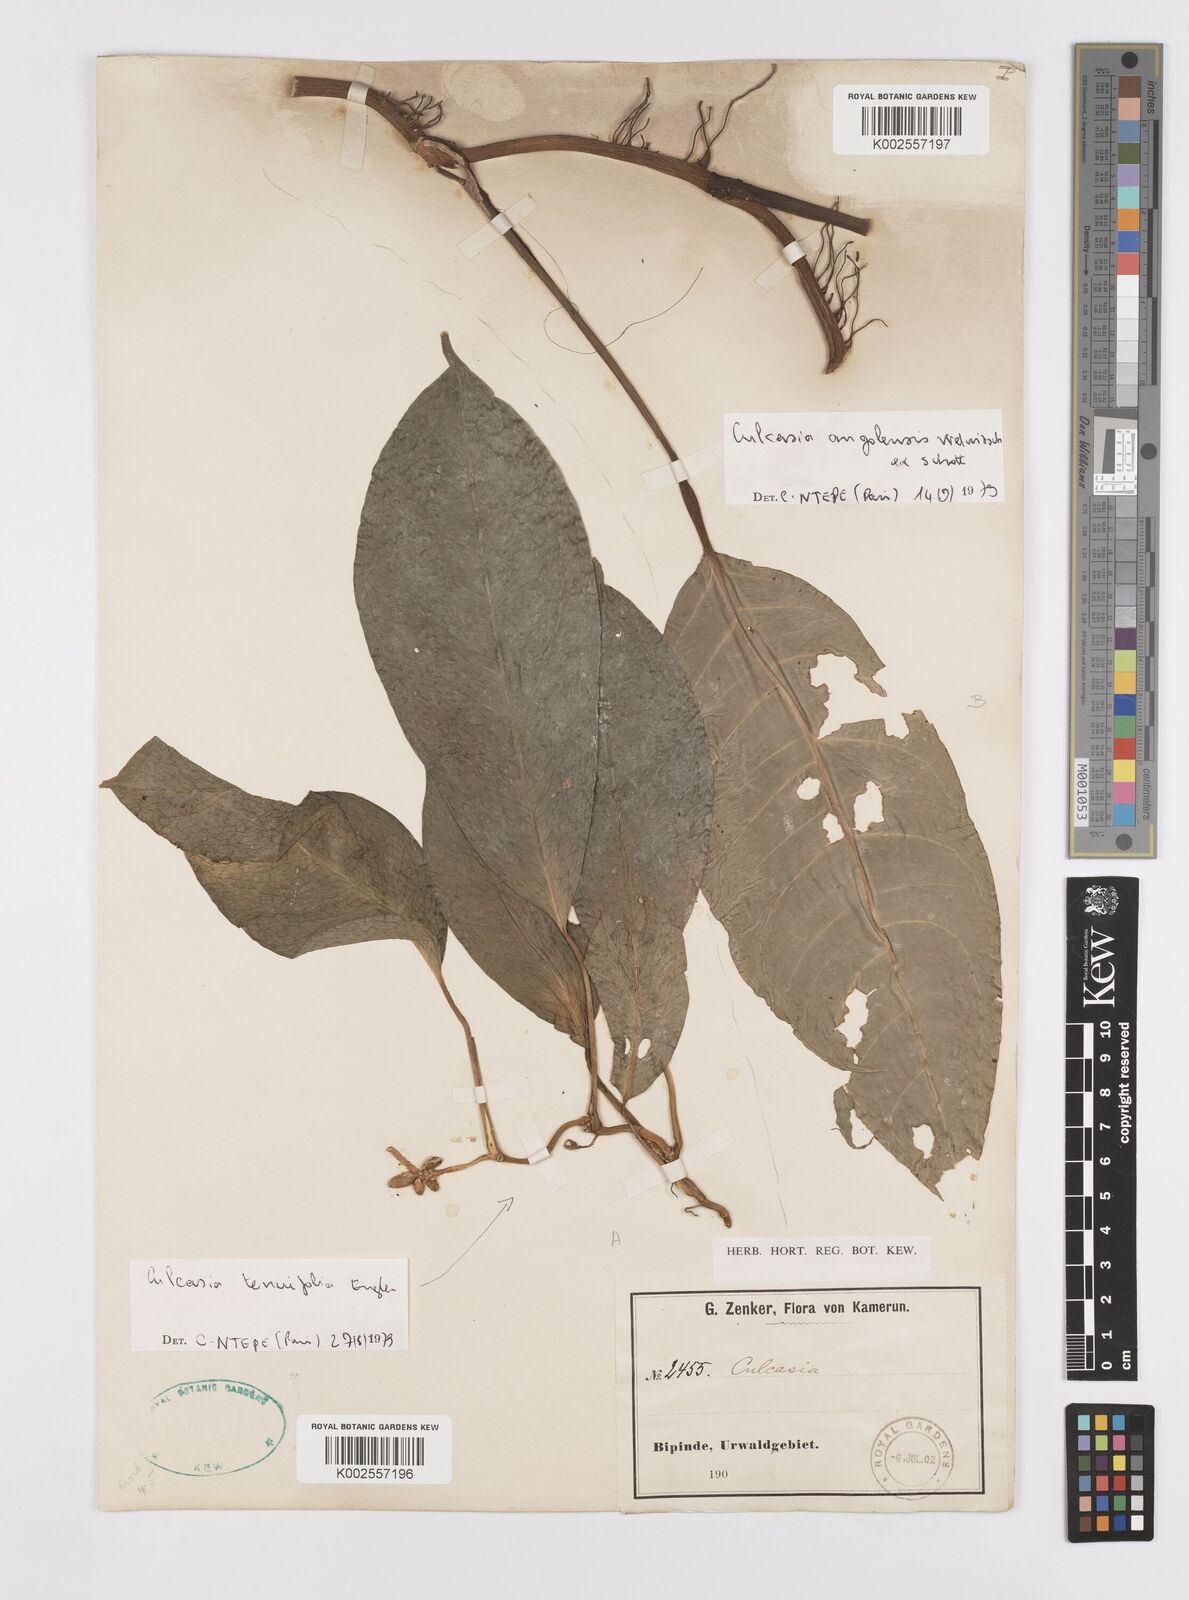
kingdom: Plantae
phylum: Tracheophyta
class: Liliopsida
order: Alismatales
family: Araceae
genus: Culcasia
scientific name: Culcasia tenuifolia
